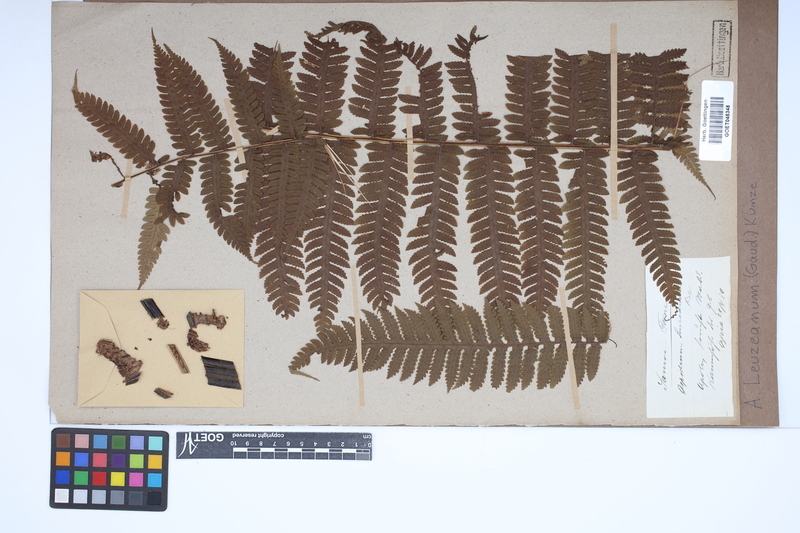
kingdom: Plantae
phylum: Tracheophyta
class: Polypodiopsida
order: Polypodiales
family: Dryopteridaceae
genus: Pleocnemia
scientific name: Pleocnemia leuzeana
